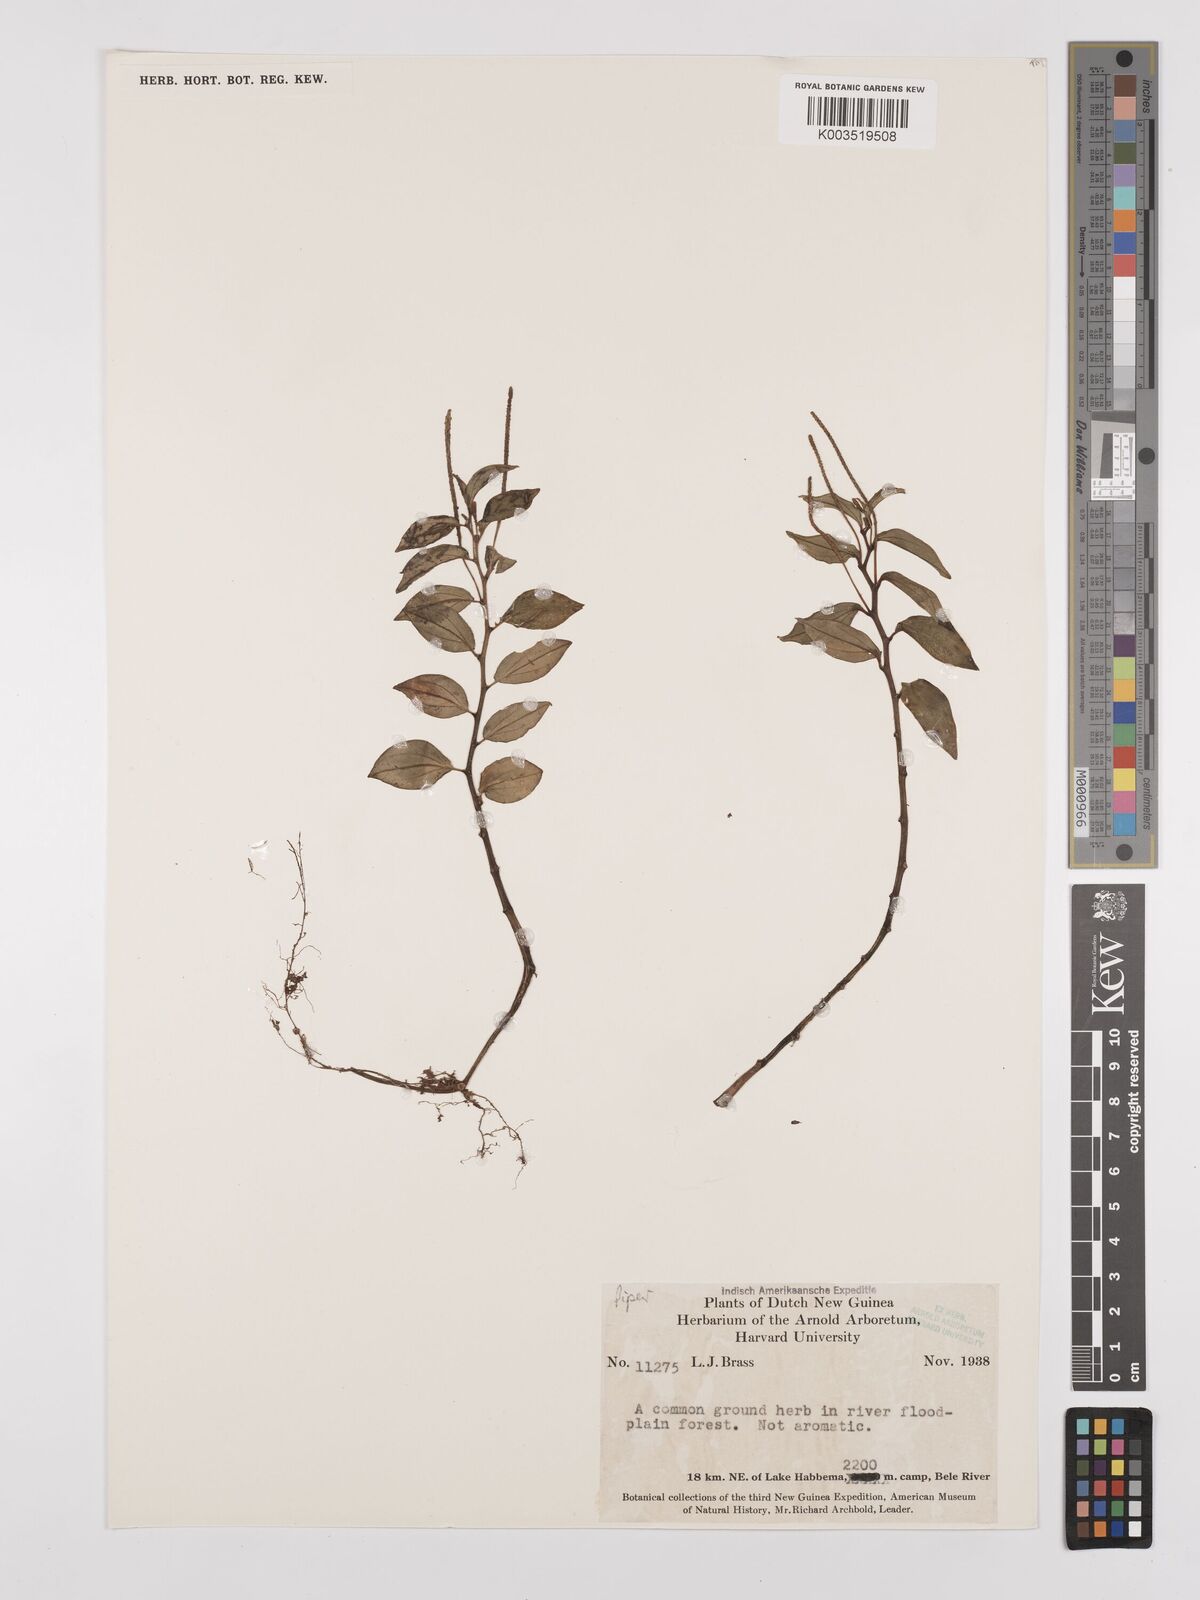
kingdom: Plantae
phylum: Tracheophyta
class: Magnoliopsida
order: Piperales
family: Piperaceae
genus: Peperomia
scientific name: Peperomia
